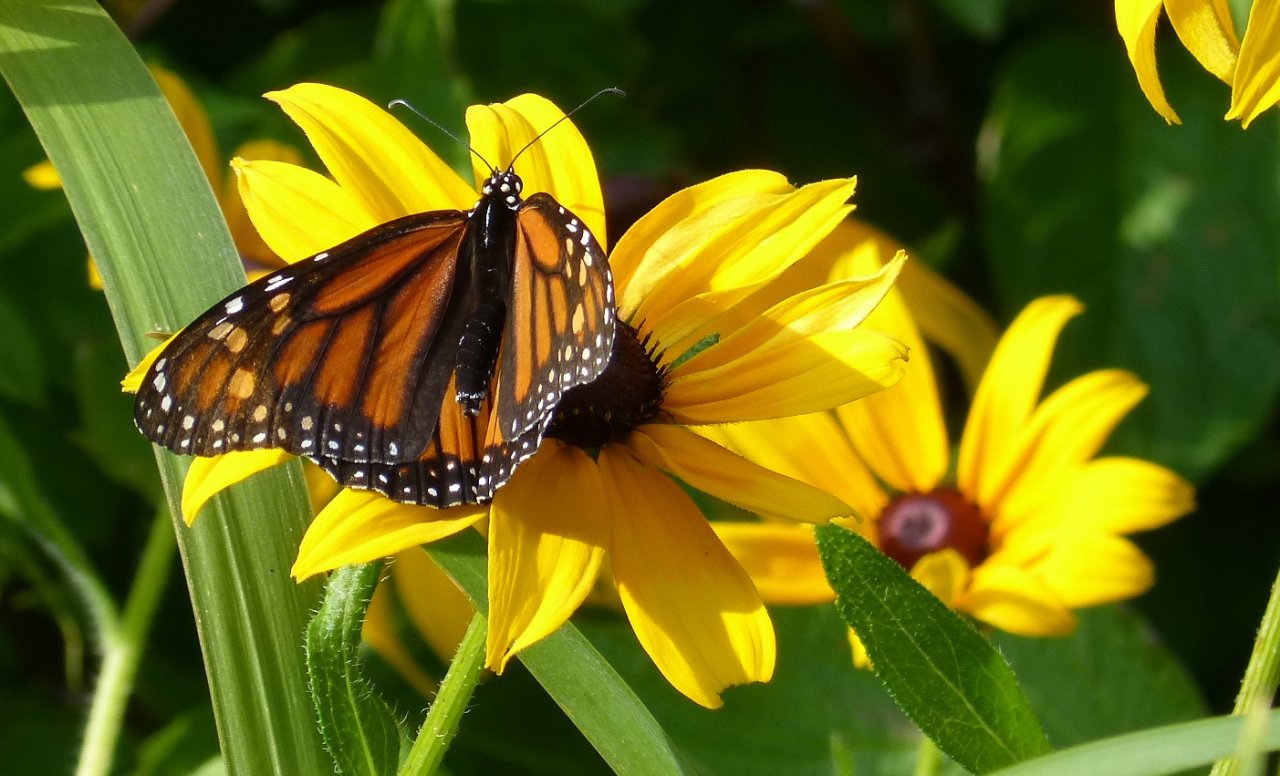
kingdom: Animalia
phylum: Arthropoda
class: Insecta
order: Lepidoptera
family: Nymphalidae
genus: Danaus
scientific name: Danaus plexippus
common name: Monarch
